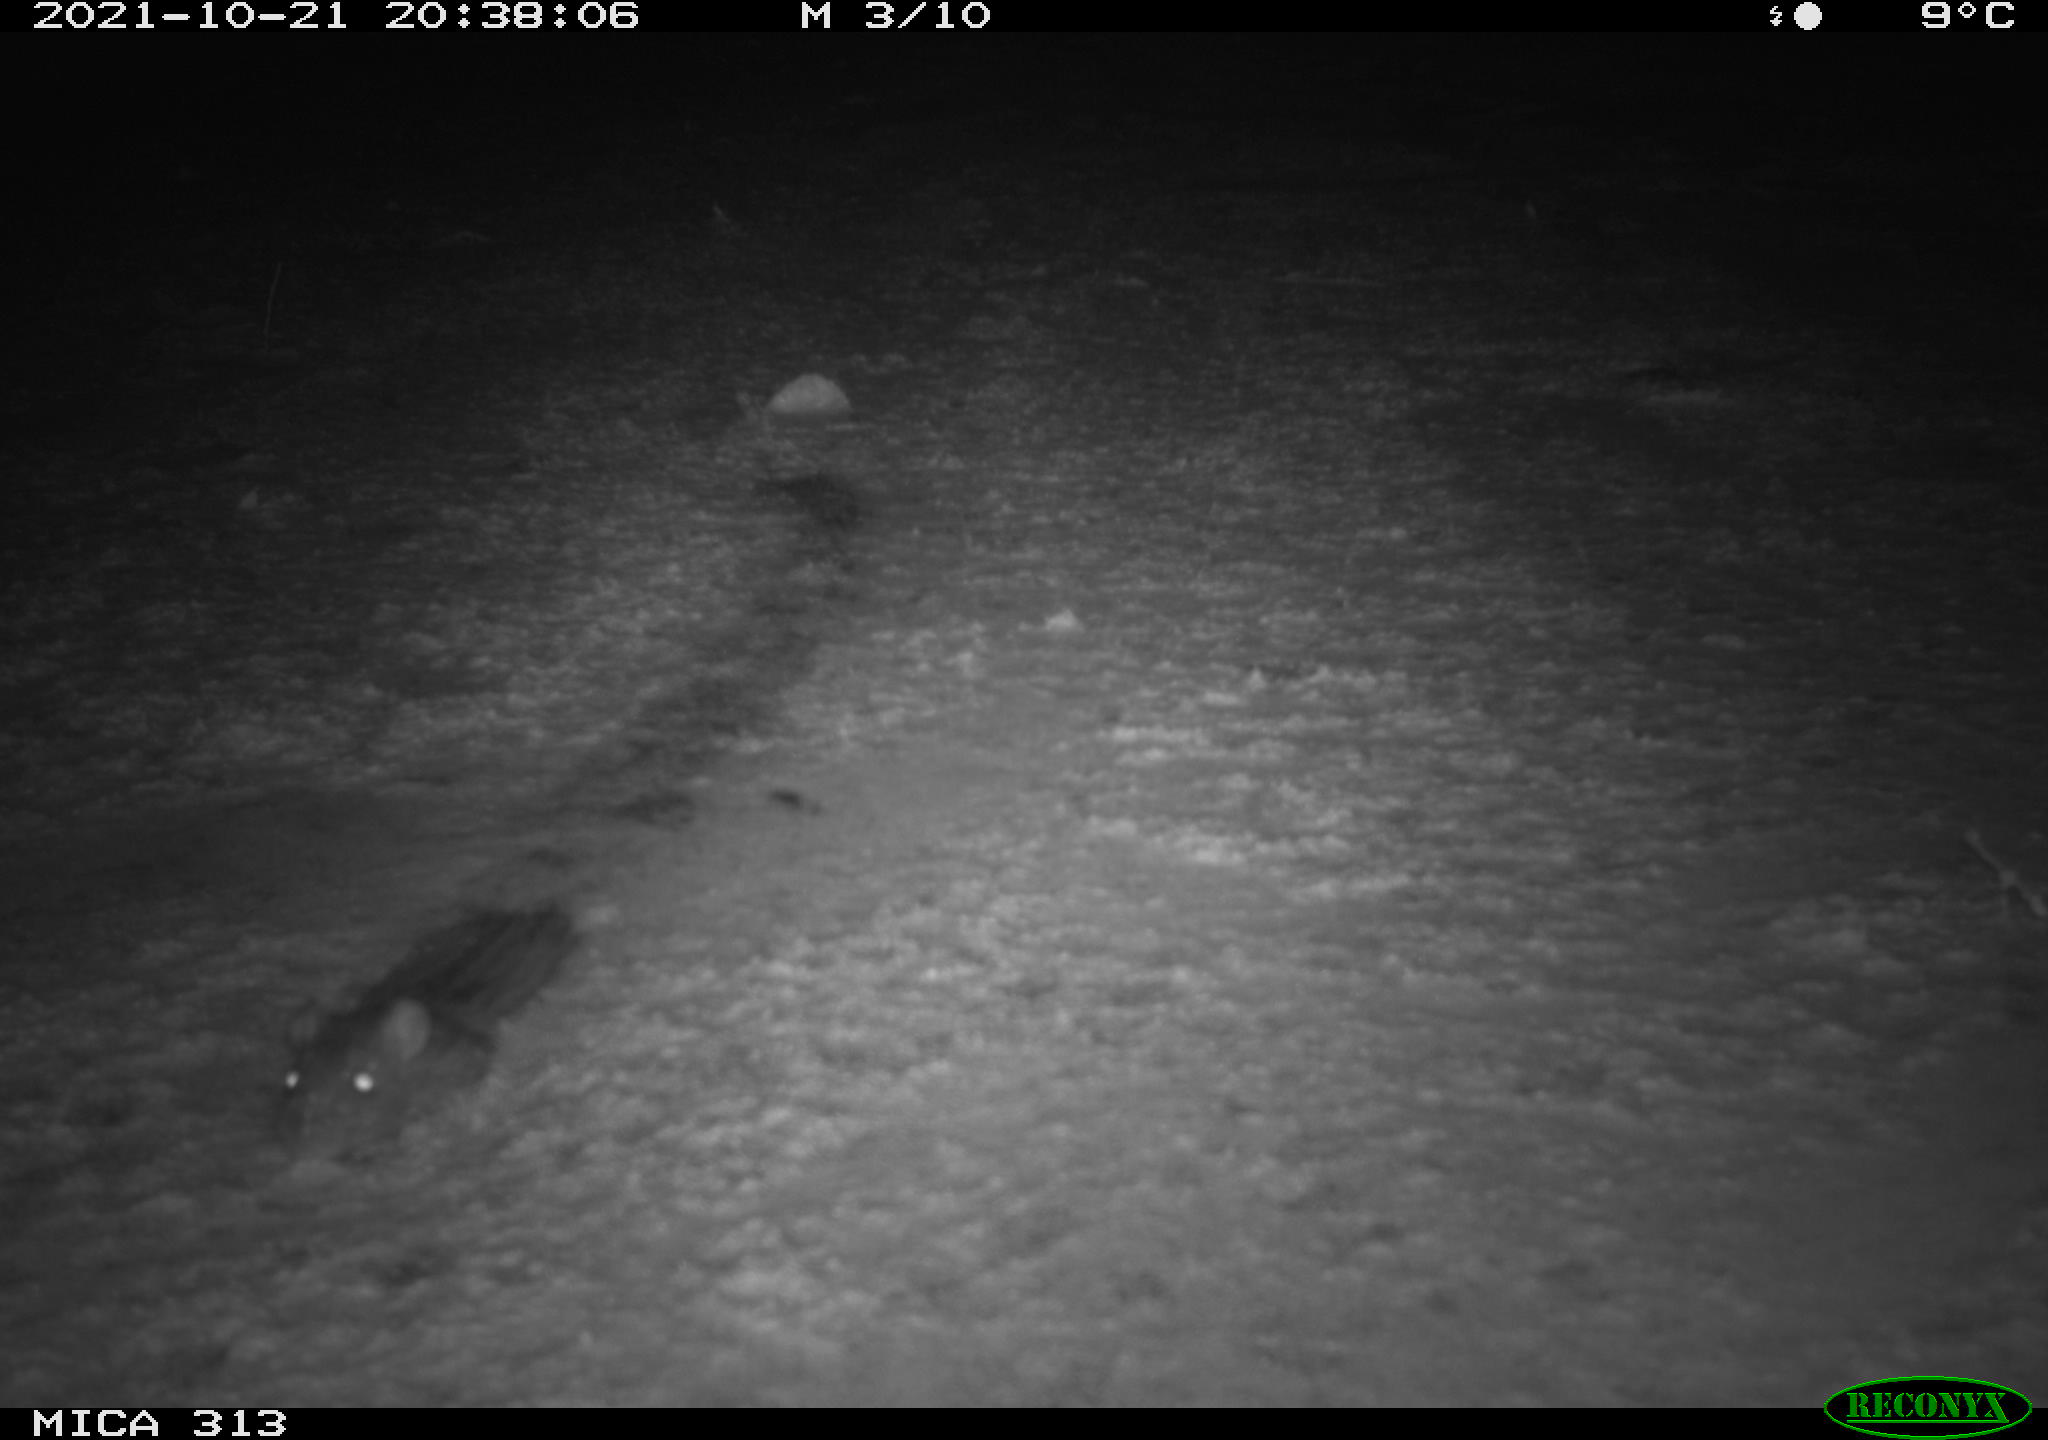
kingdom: Animalia
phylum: Chordata
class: Mammalia
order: Rodentia
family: Muridae
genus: Rattus
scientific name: Rattus norvegicus
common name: Brown rat
